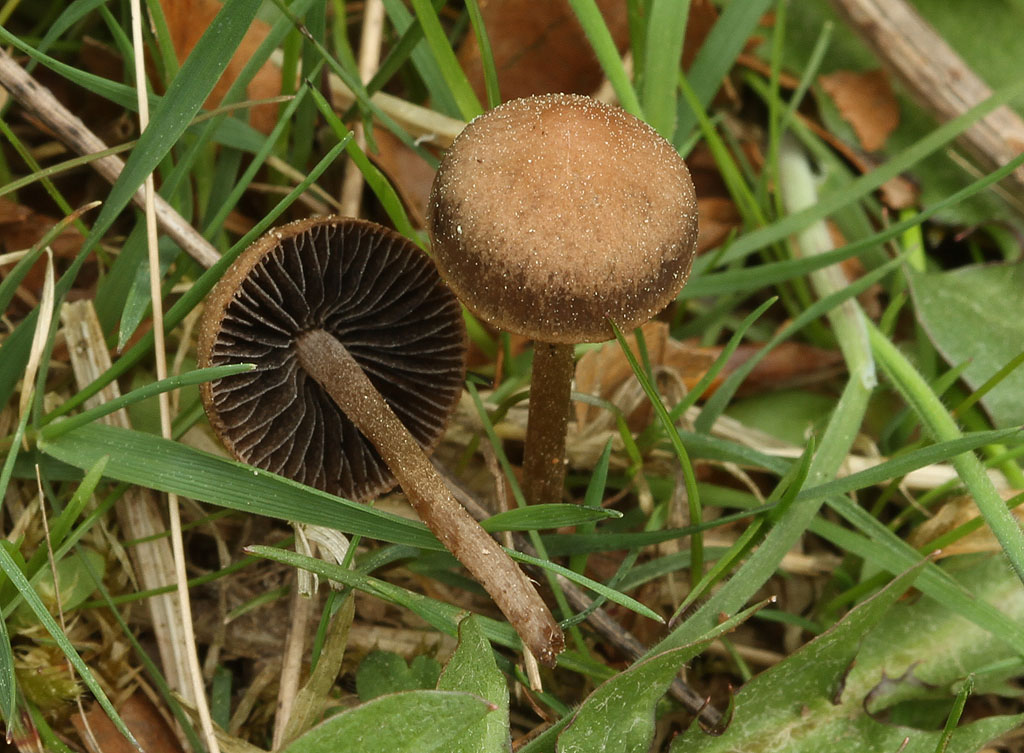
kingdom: Fungi
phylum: Basidiomycota
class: Agaricomycetes
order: Agaricales
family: Bolbitiaceae
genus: Panaeolus
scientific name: Panaeolus fimicola
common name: tidlig glanshat
